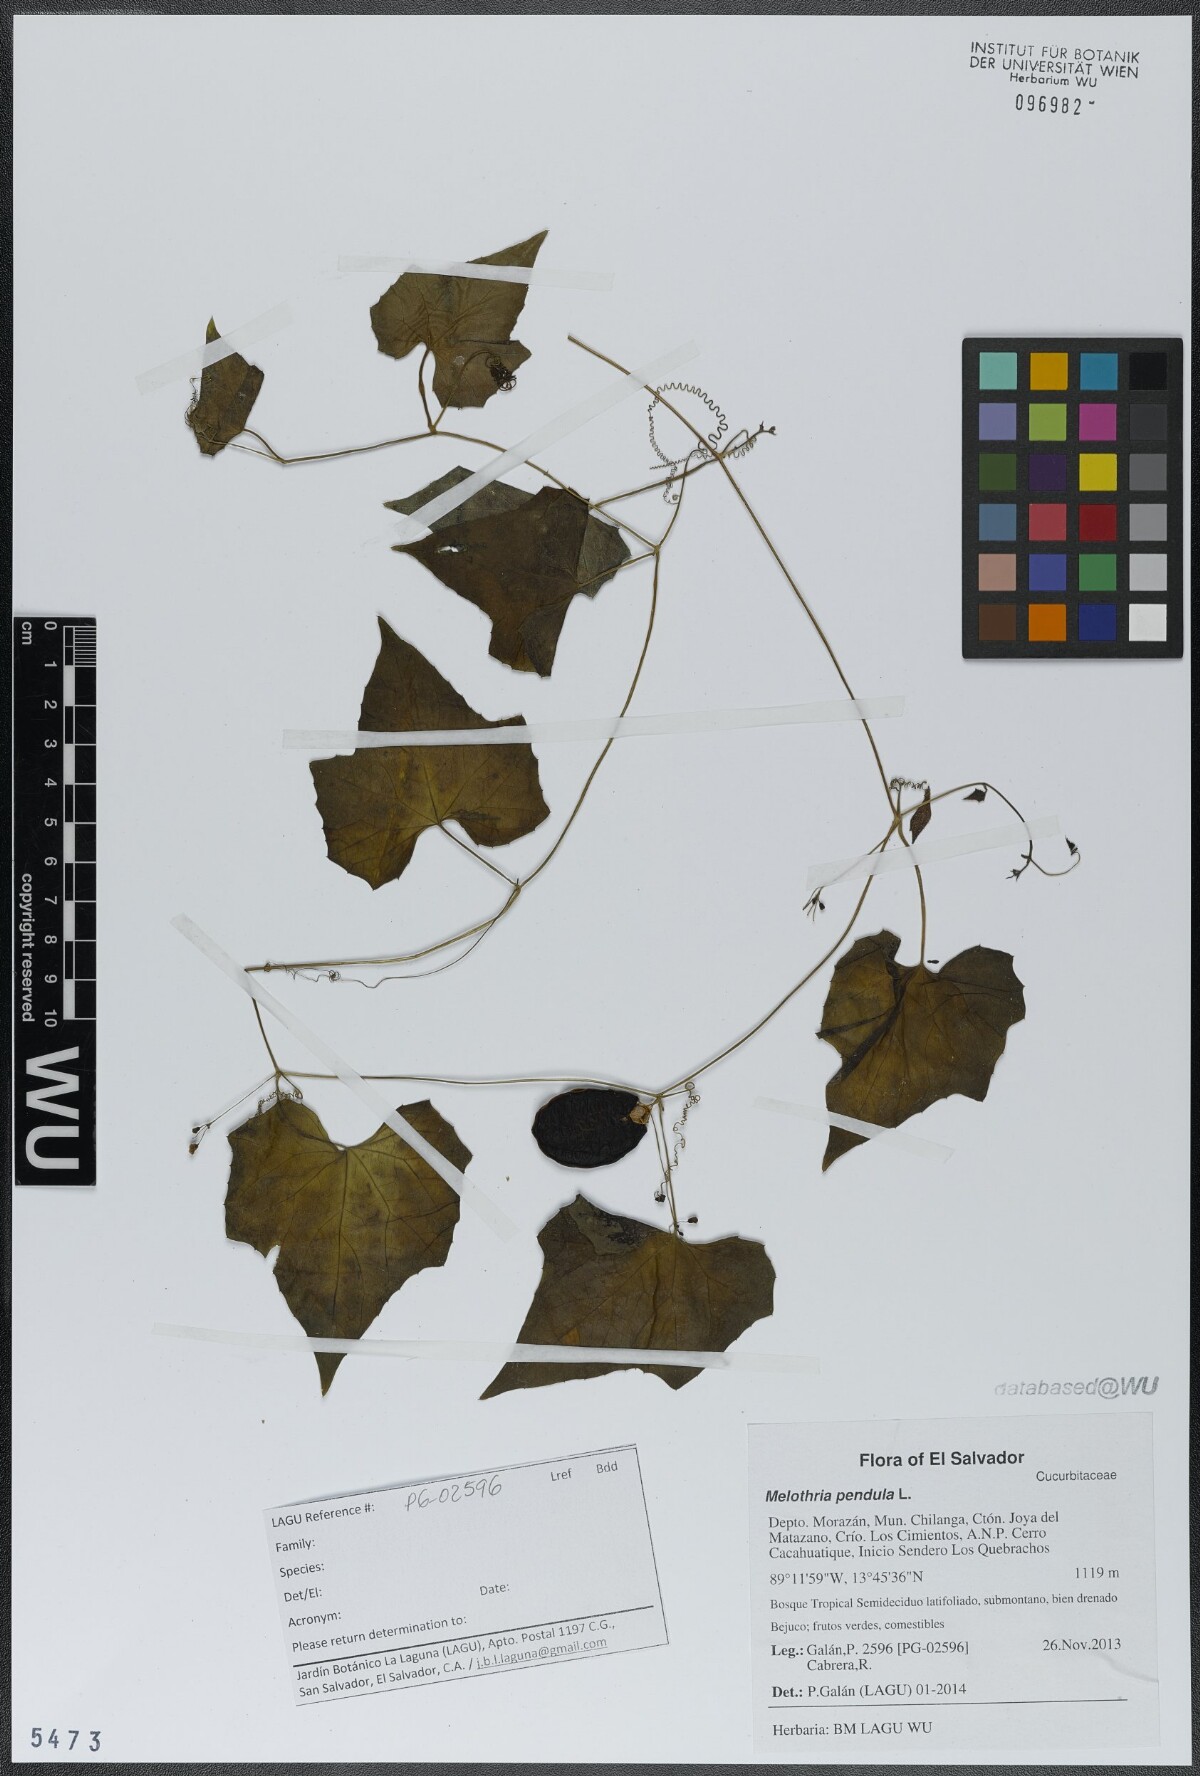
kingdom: Plantae
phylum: Tracheophyta
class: Magnoliopsida
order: Cucurbitales
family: Cucurbitaceae
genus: Melothria
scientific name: Melothria pendula
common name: Creeping-cucumber
